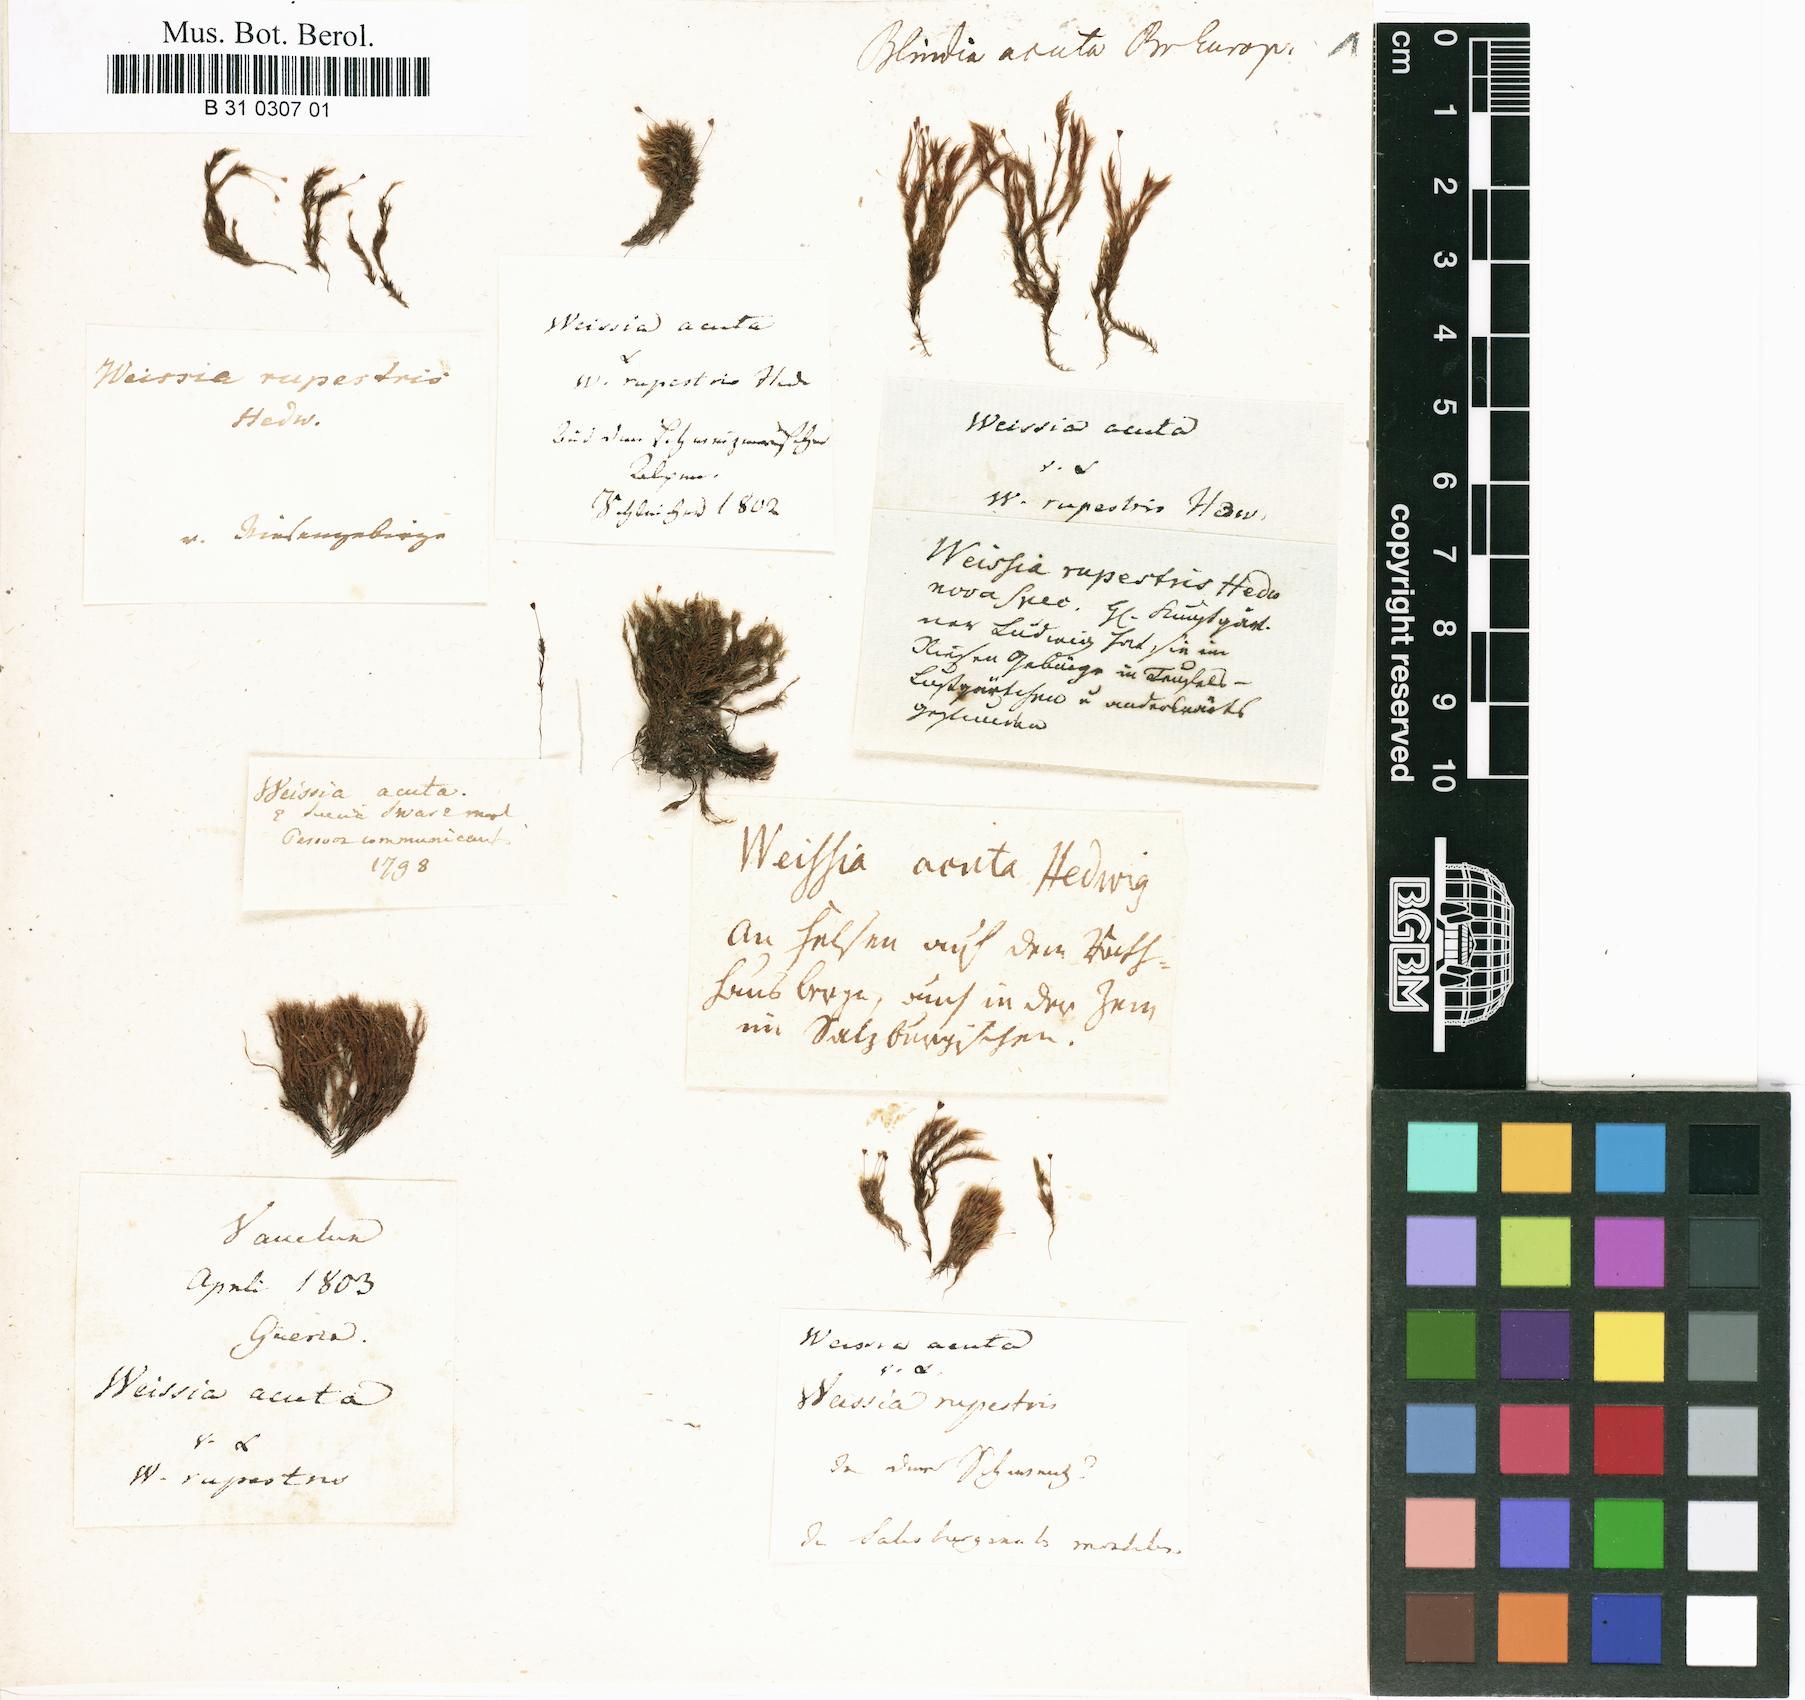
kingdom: Plantae
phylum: Bryophyta
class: Bryopsida
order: Grimmiales
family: Seligeriaceae
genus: Blindia
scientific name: Blindia acuta
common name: Sharp-leaved blind's moss
